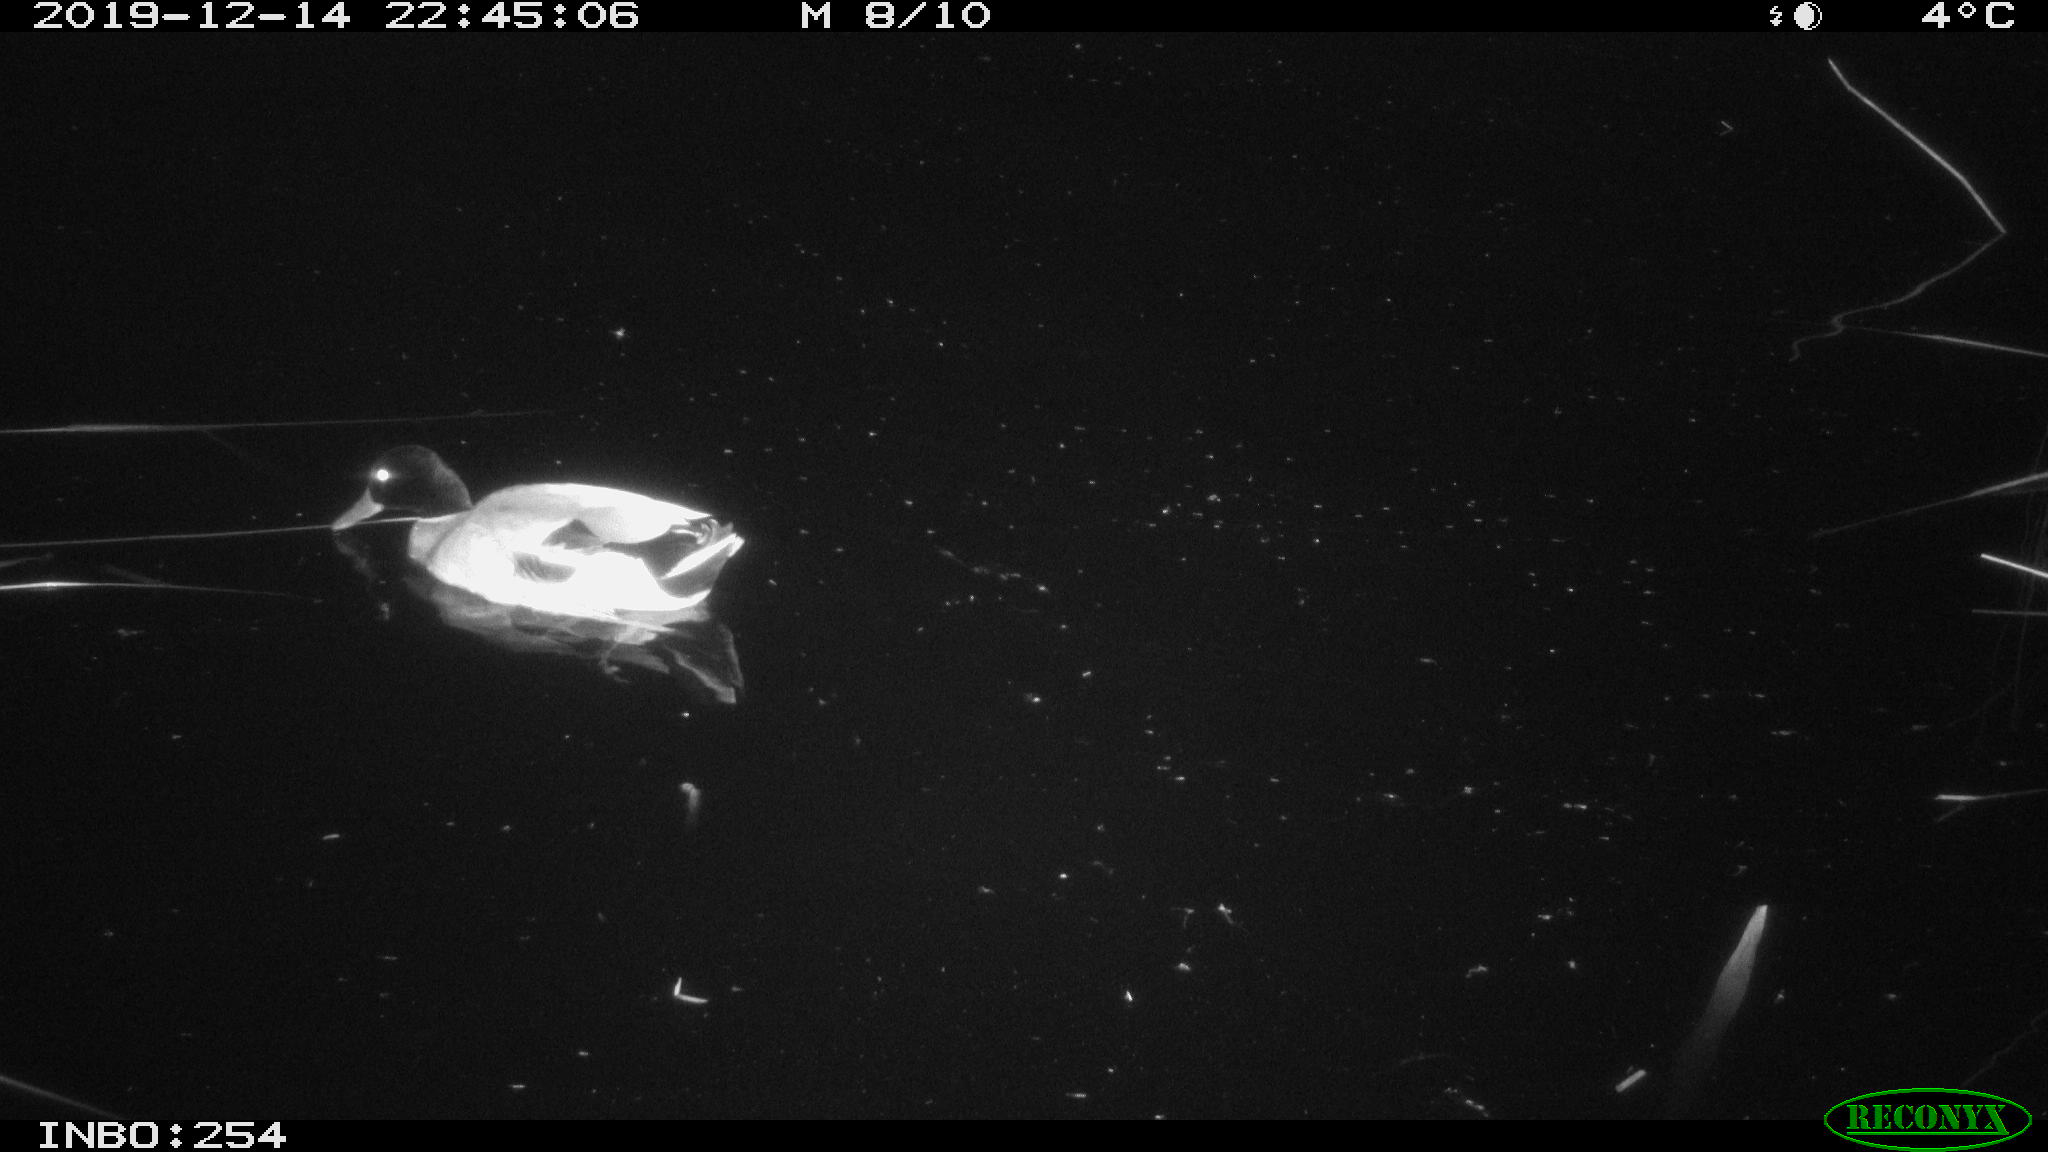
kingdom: Animalia
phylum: Chordata
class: Aves
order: Anseriformes
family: Anatidae
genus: Anas
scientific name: Anas platyrhynchos
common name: Mallard
